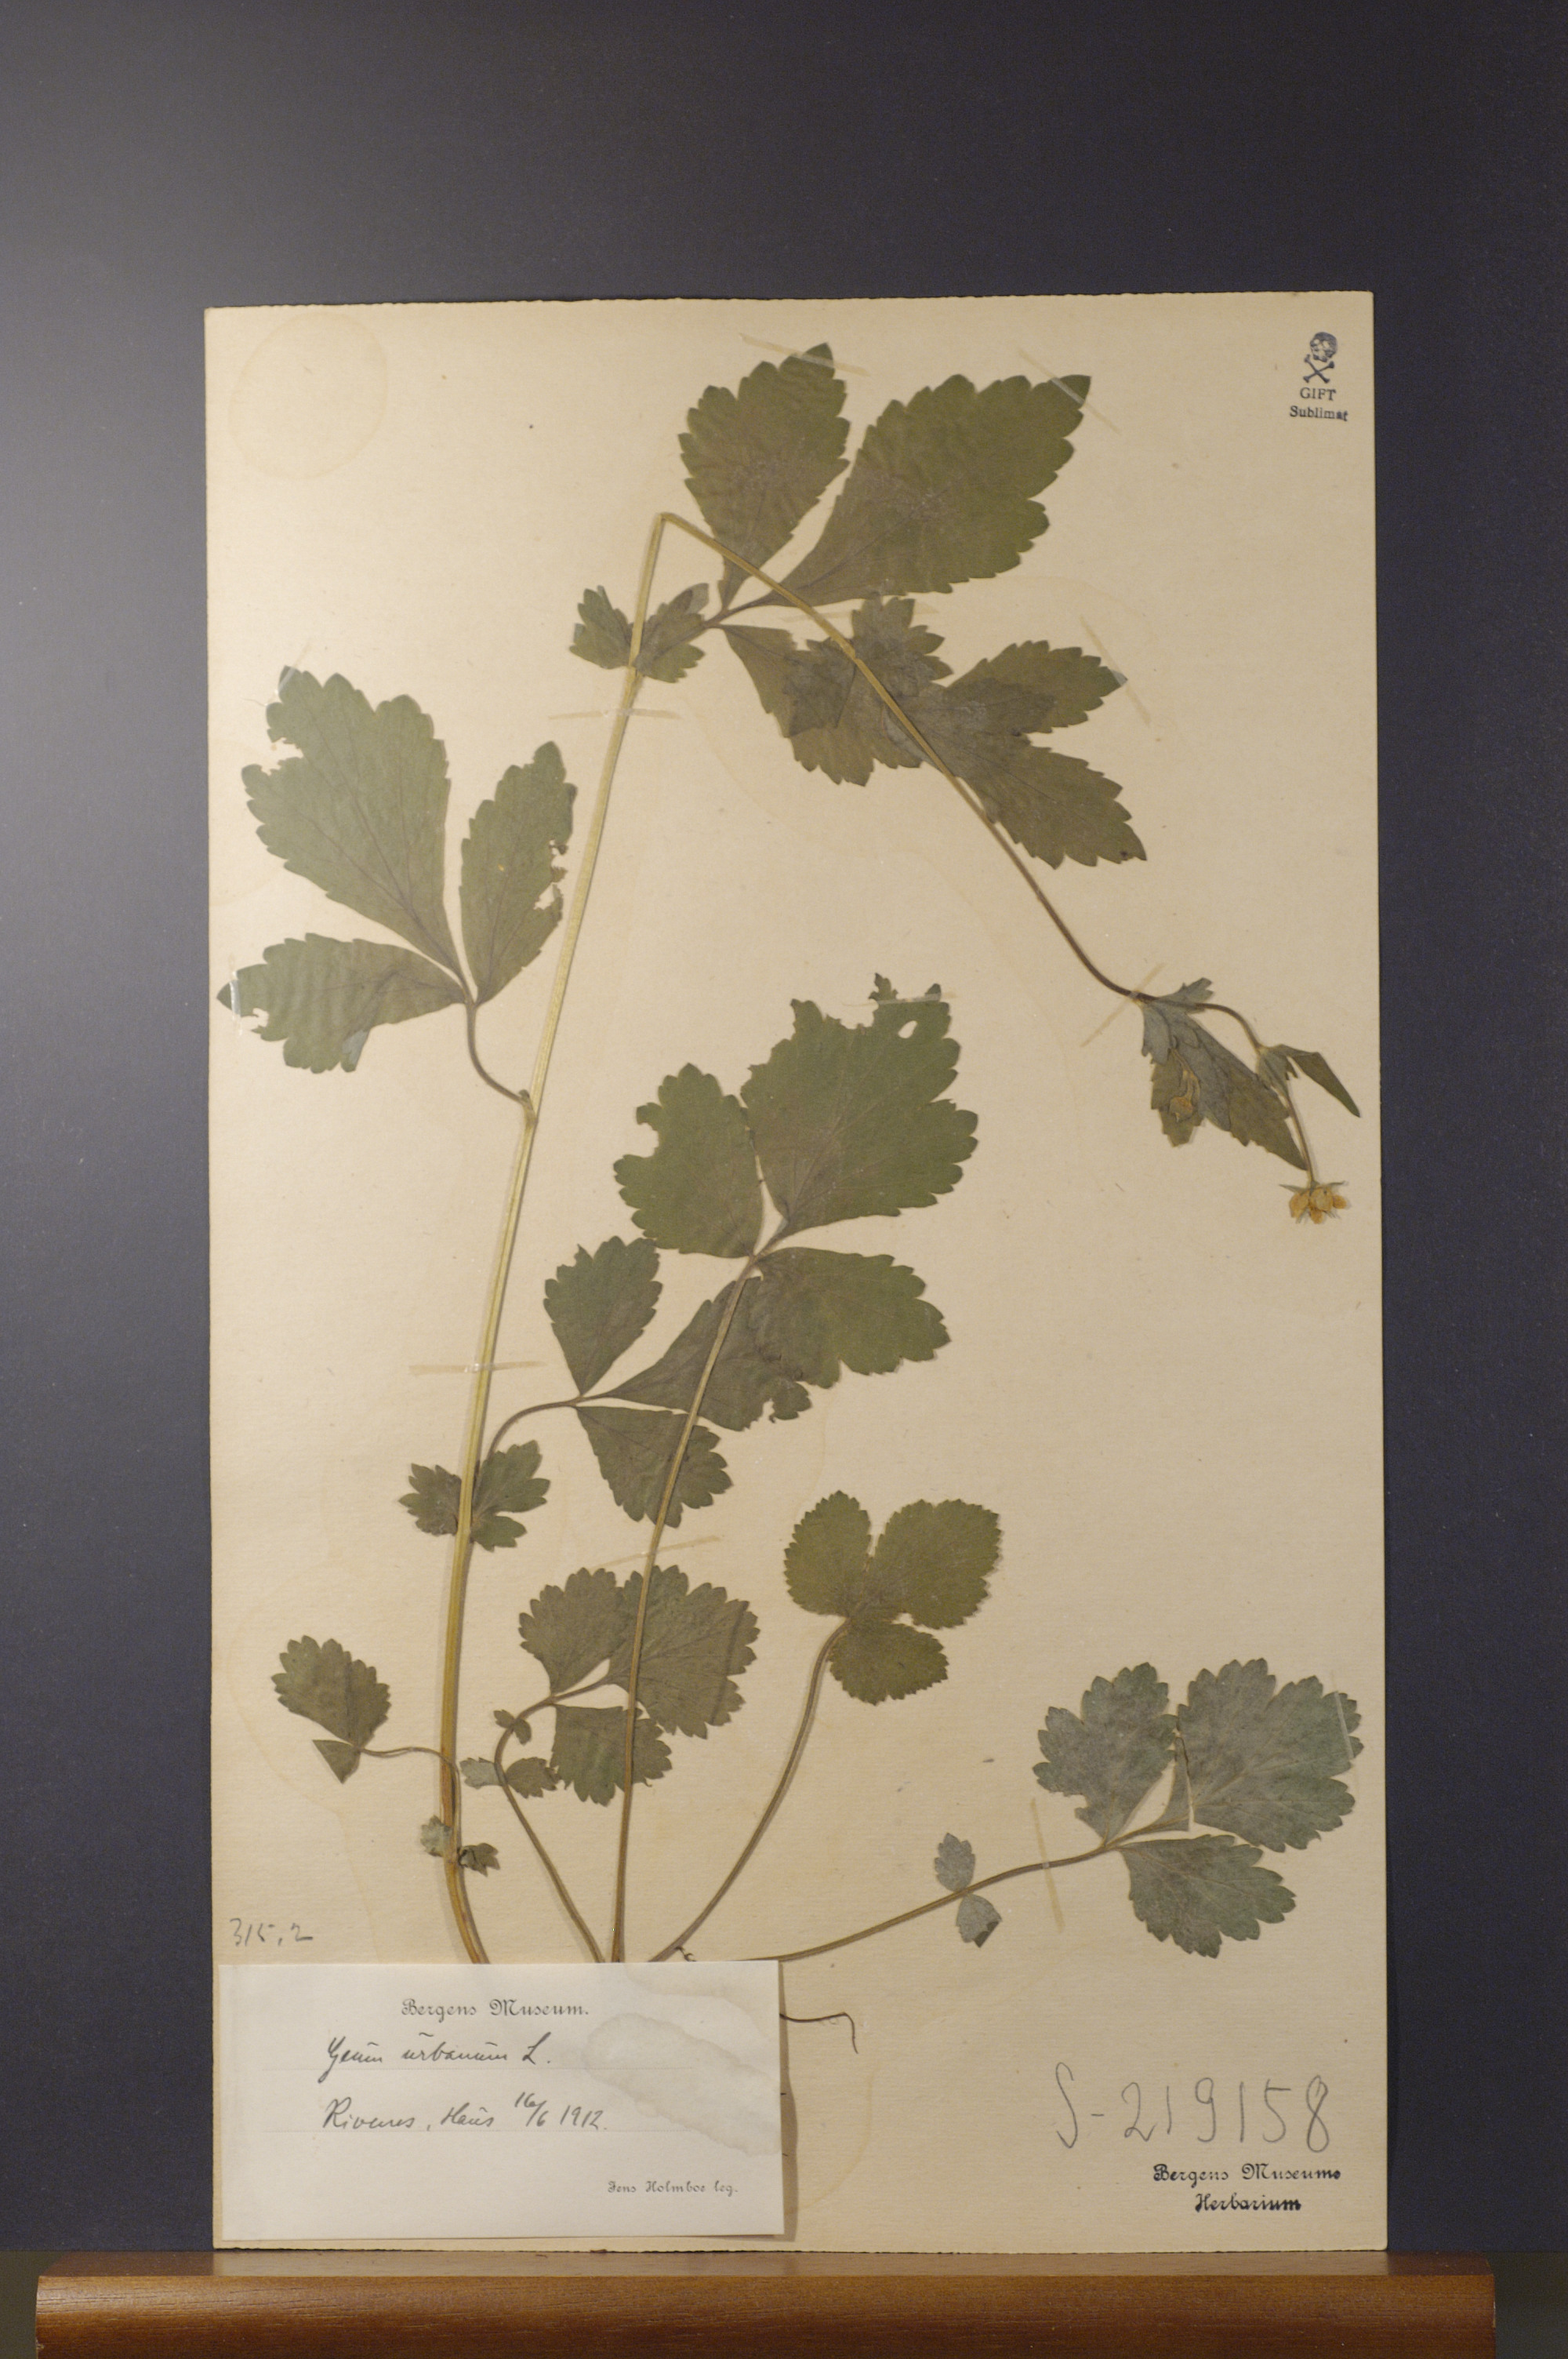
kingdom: Plantae
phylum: Tracheophyta
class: Magnoliopsida
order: Rosales
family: Rosaceae
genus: Geum
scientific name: Geum urbanum
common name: Wood avens
